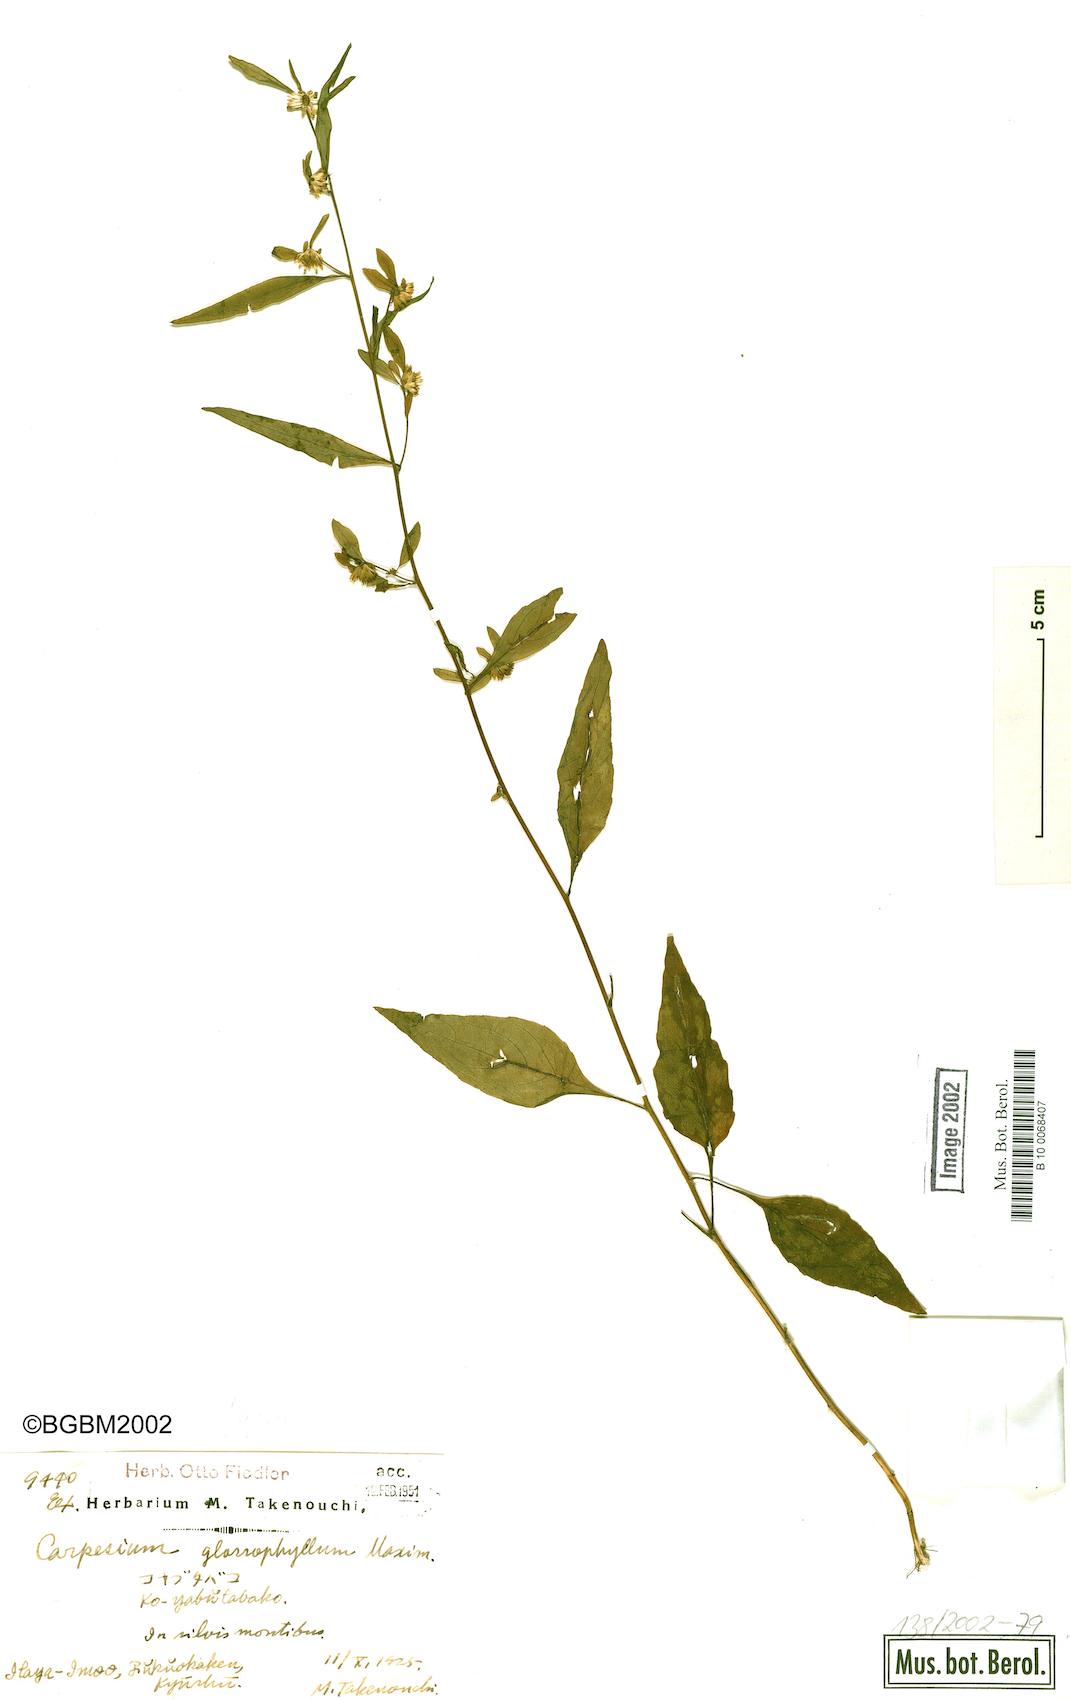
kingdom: Plantae
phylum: Tracheophyta
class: Magnoliopsida
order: Asterales
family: Asteraceae
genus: Carpesium
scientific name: Carpesium faberi
